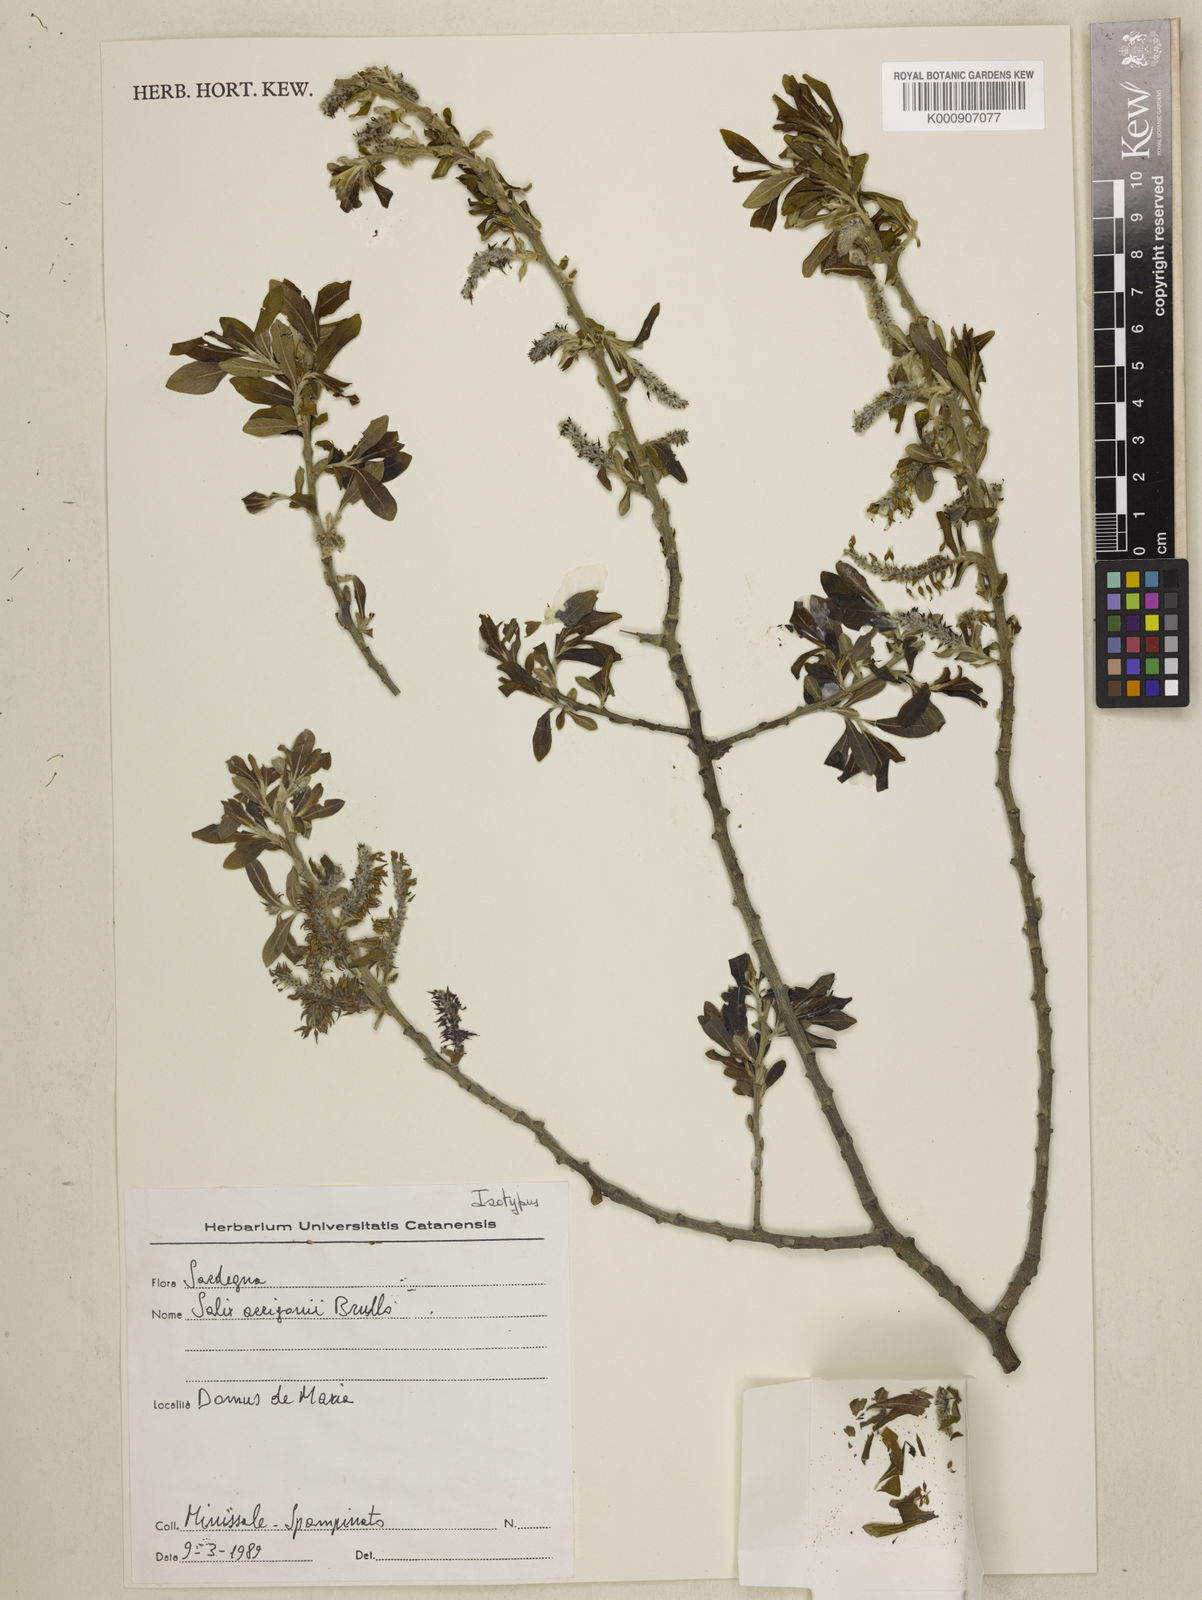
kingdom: Plantae
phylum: Tracheophyta
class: Magnoliopsida
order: Malpighiales
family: Salicaceae
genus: Salix
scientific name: Salix arrigonii
